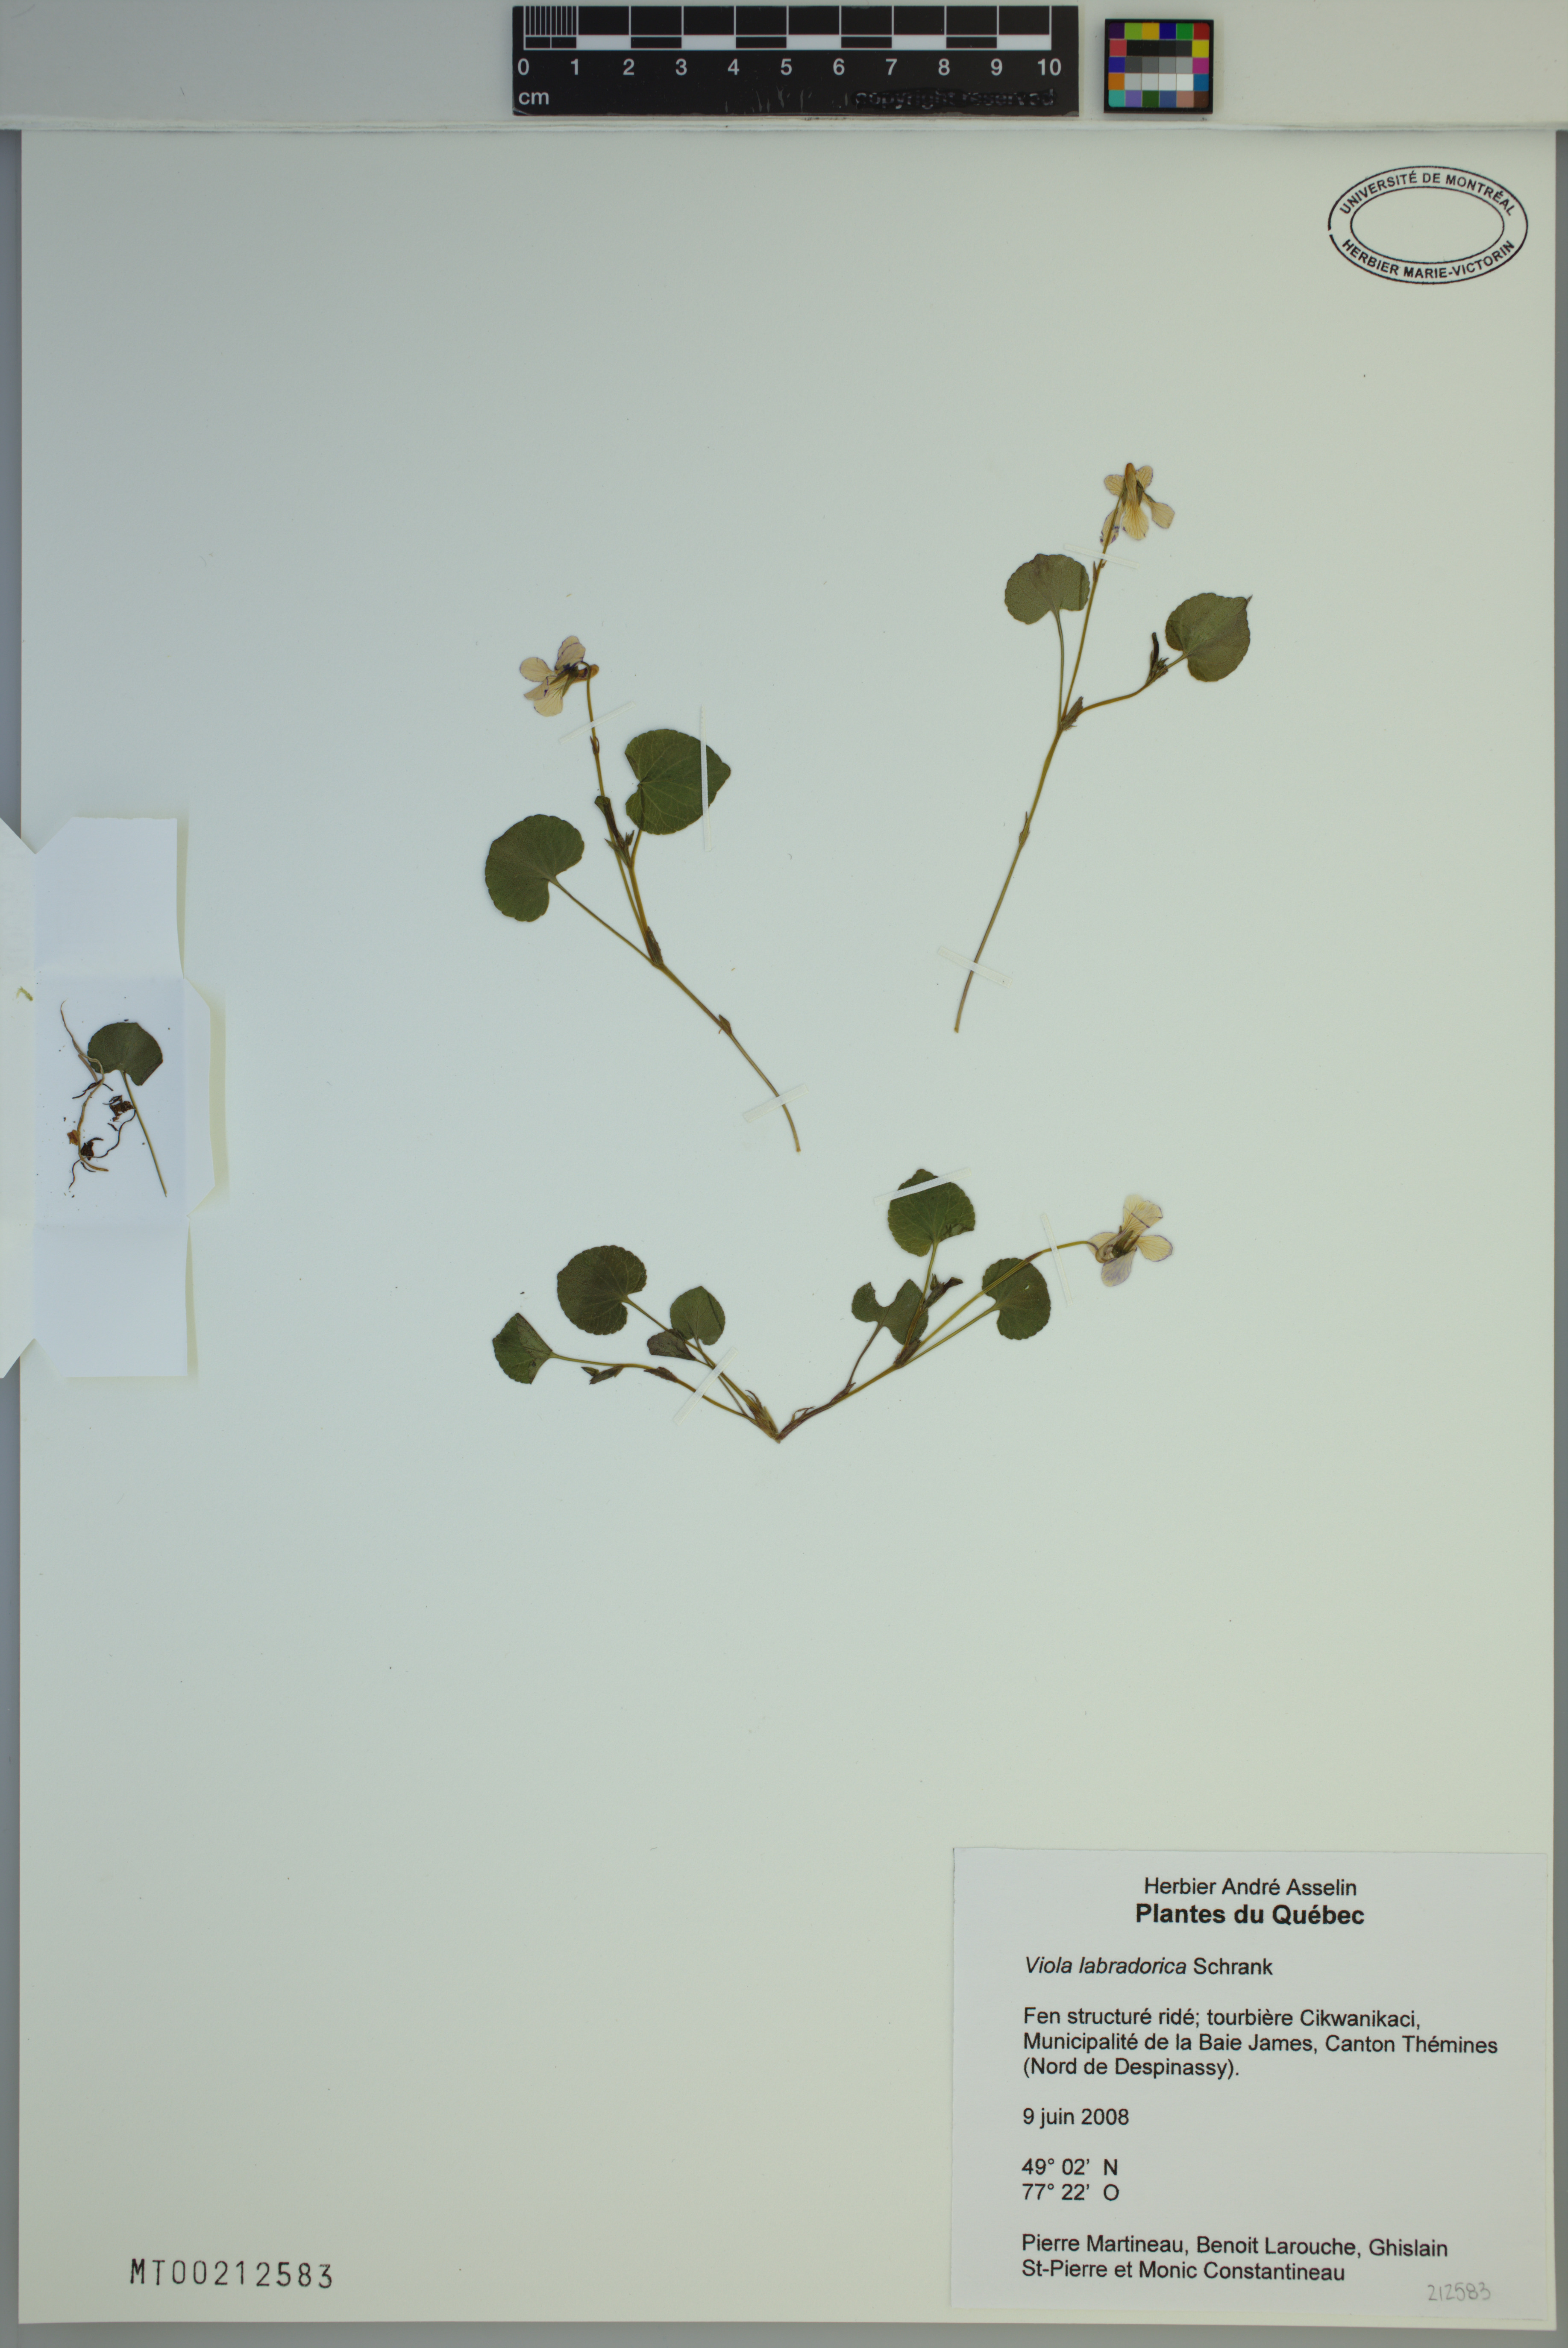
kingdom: Plantae
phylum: Tracheophyta
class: Magnoliopsida
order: Malpighiales
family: Violaceae
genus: Viola
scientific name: Viola labradorica
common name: Labrador violet
